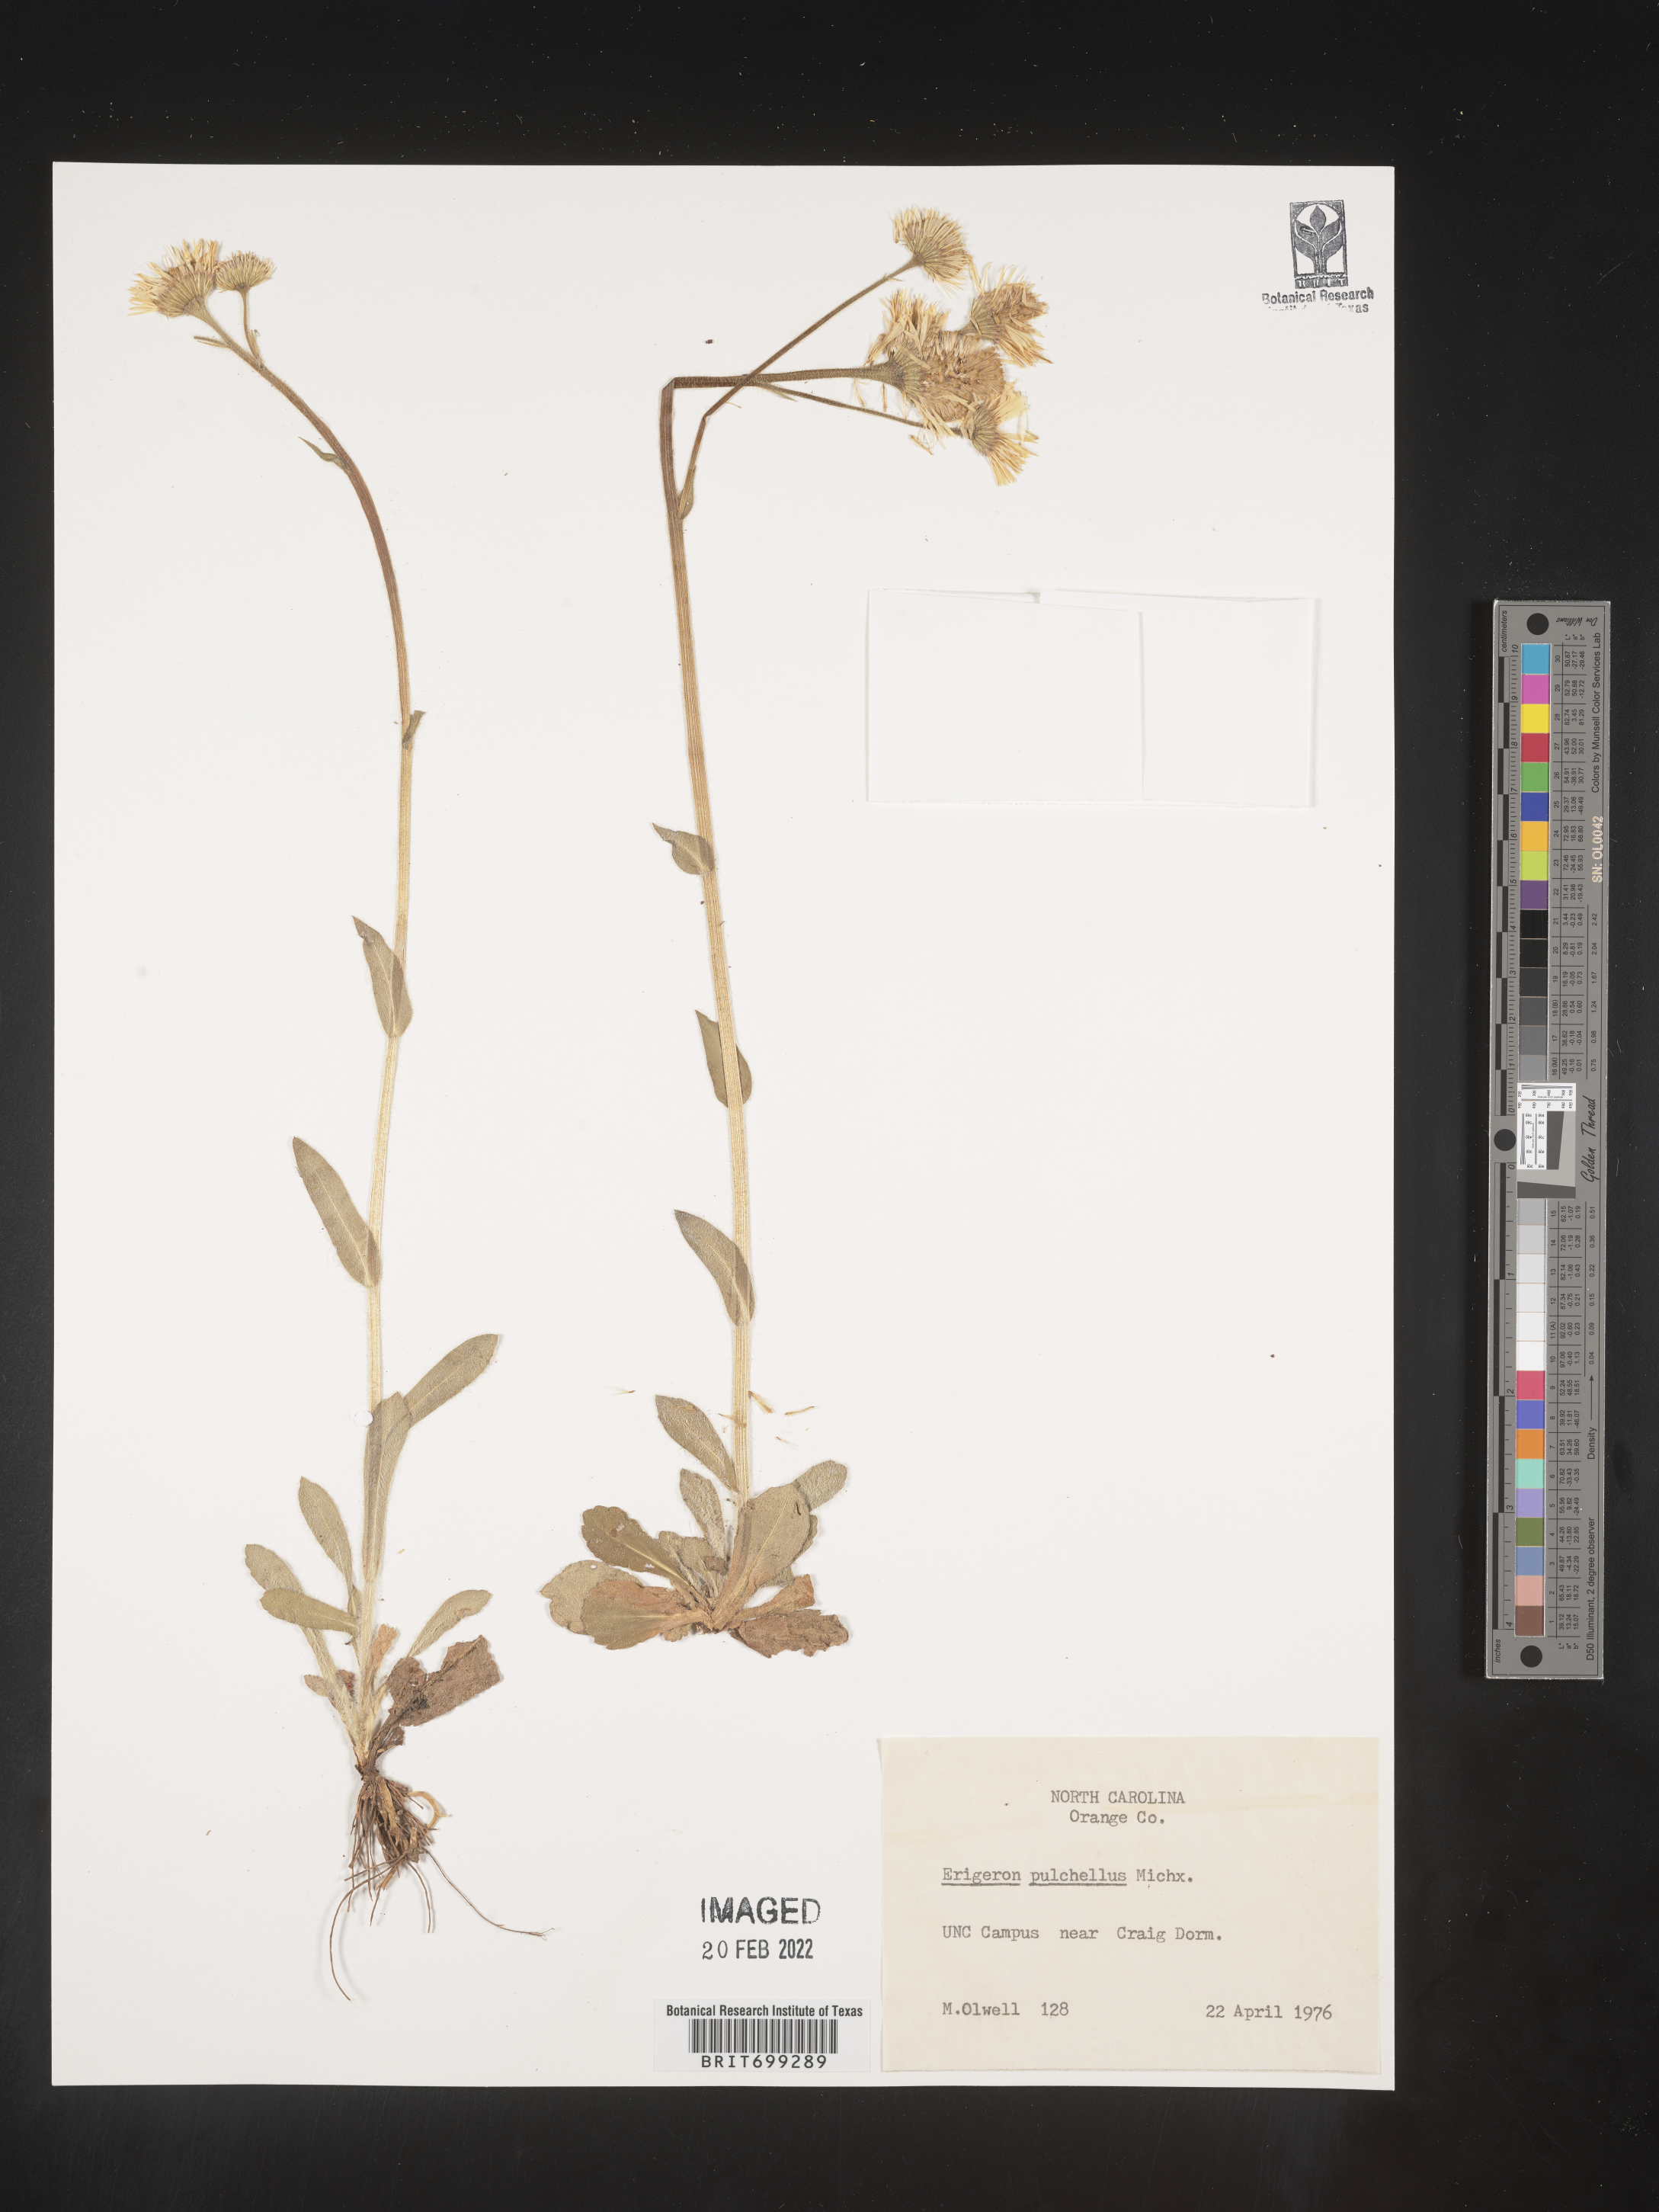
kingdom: Plantae
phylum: Tracheophyta
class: Magnoliopsida
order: Asterales
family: Asteraceae
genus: Erigeron
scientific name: Erigeron pulchellus
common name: Hairy fleabane
